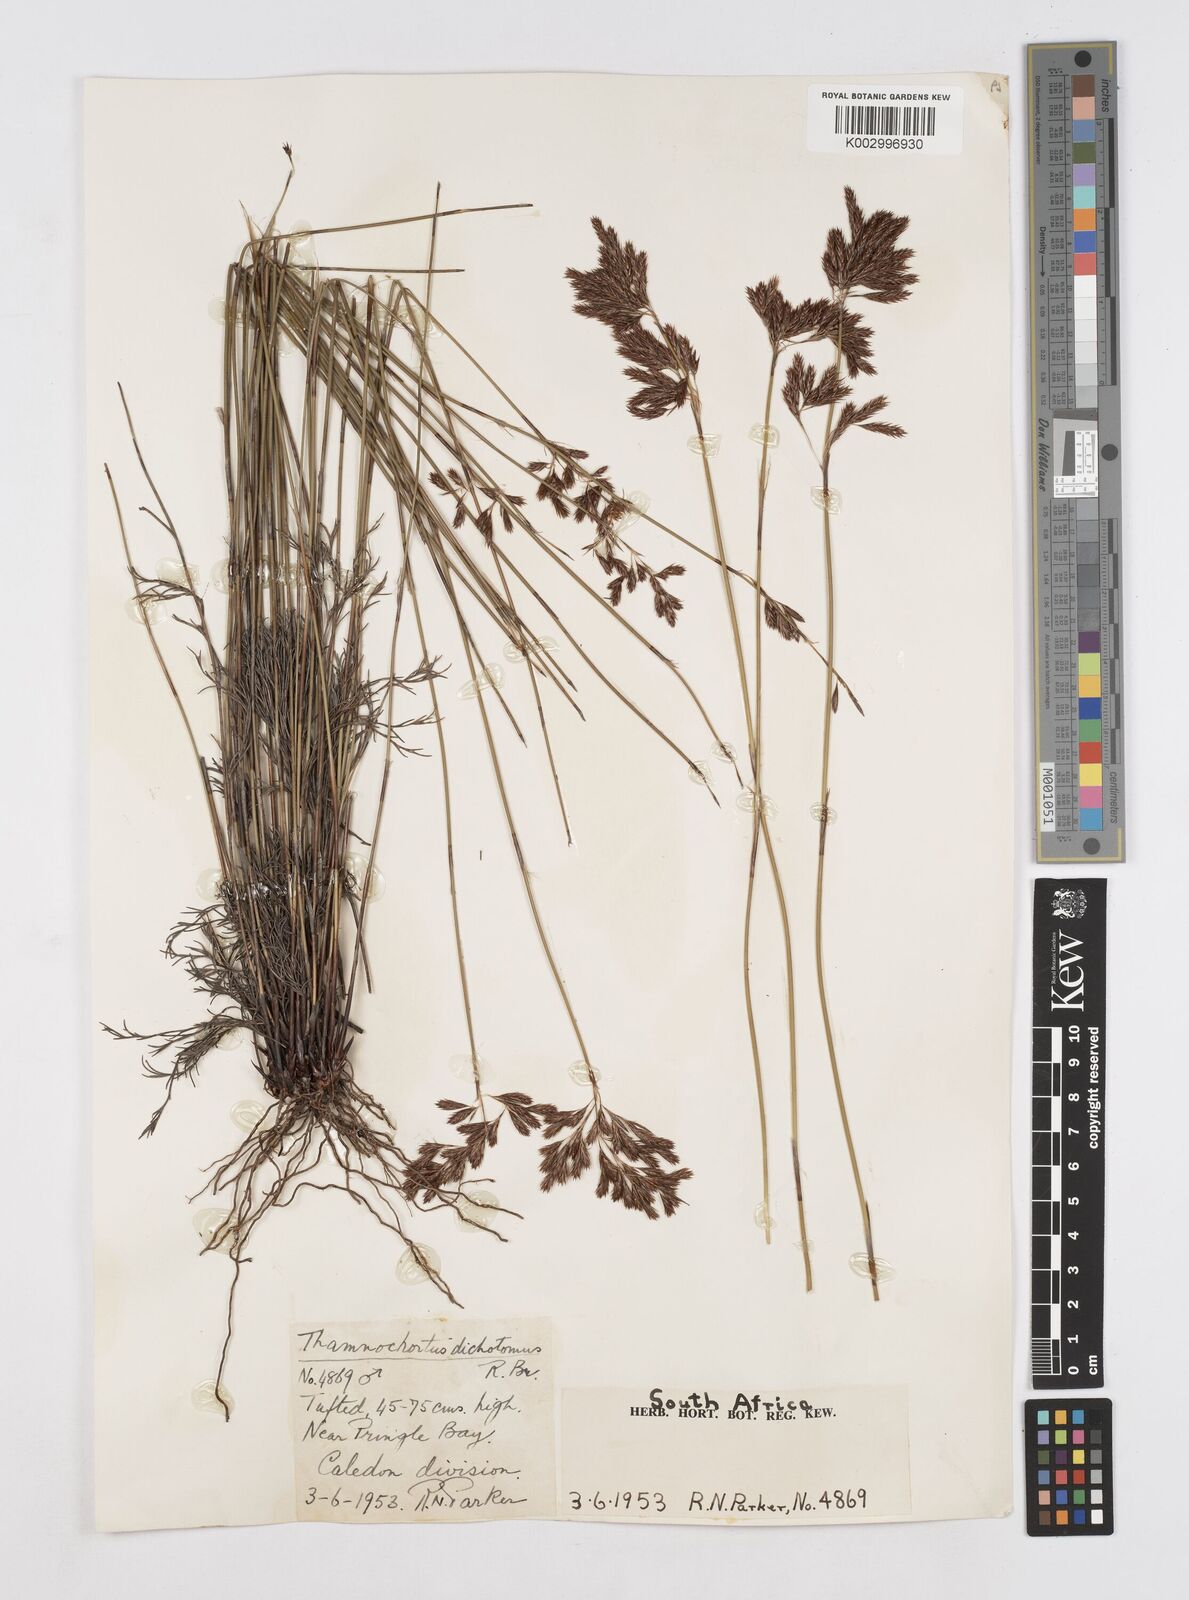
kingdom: Plantae
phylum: Tracheophyta
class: Liliopsida
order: Poales
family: Restionaceae
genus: Thamnochortus
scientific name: Thamnochortus lucens
